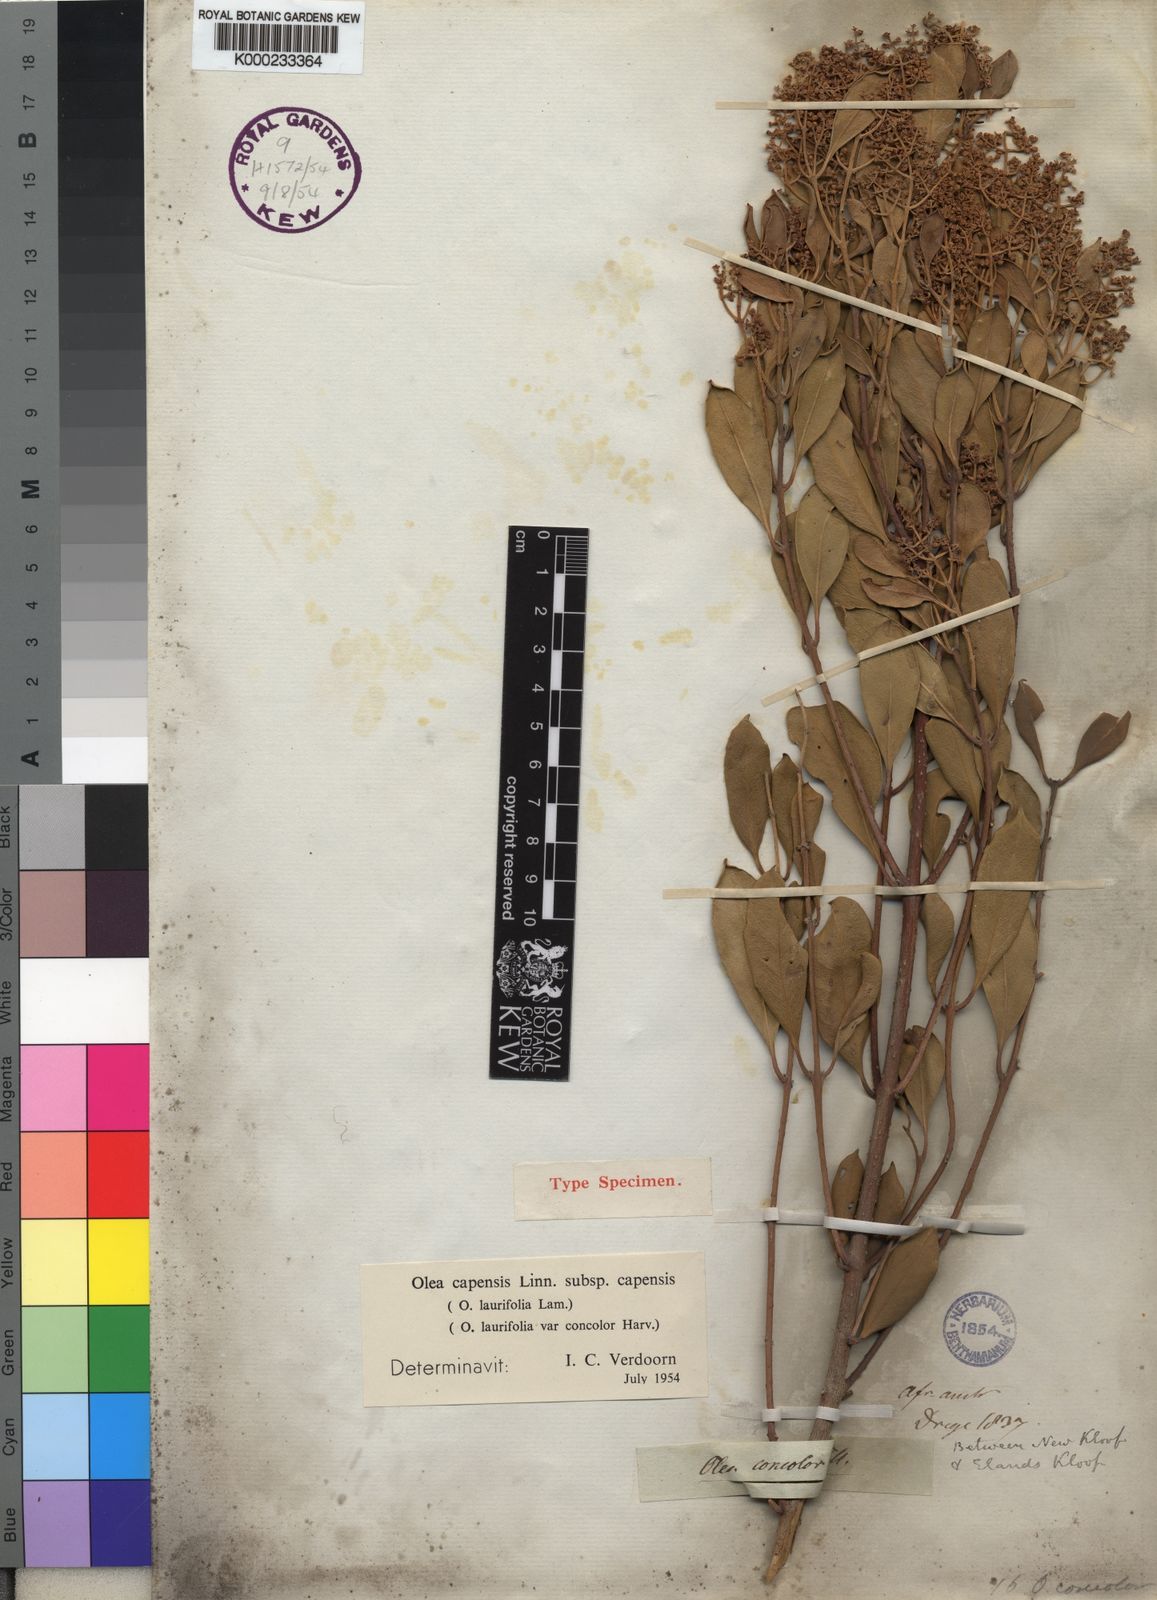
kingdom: Plantae
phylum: Tracheophyta
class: Magnoliopsida
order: Lamiales
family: Oleaceae
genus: Olea
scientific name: Olea capensis
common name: Black ironwood
